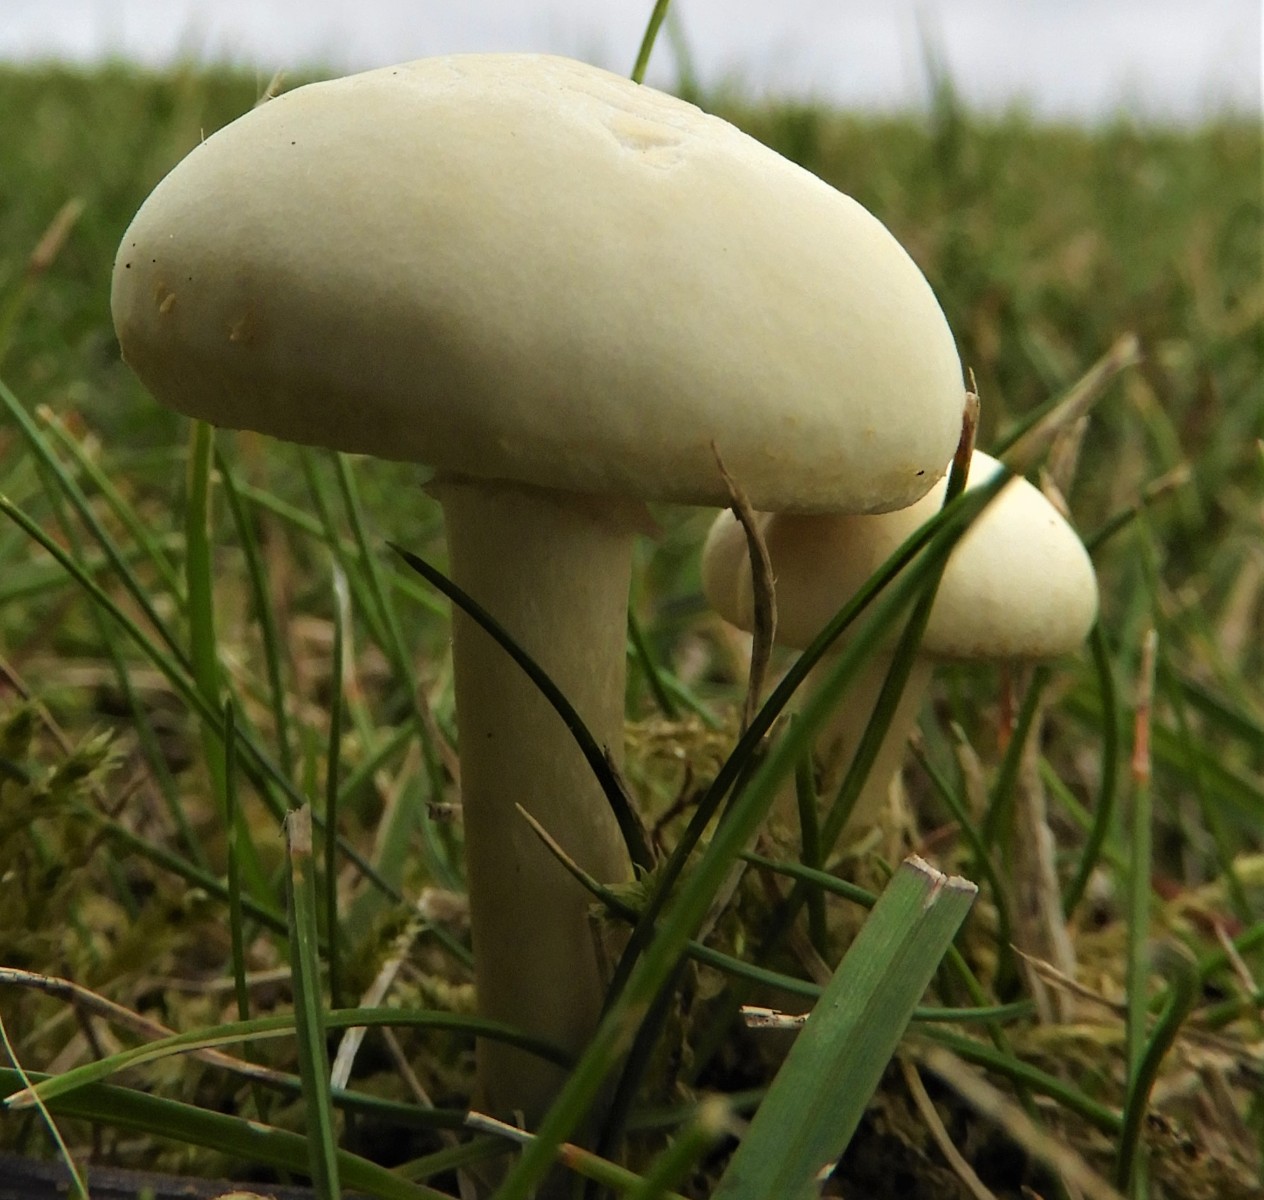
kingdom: Fungi
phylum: Basidiomycota
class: Agaricomycetes
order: Agaricales
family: Strophariaceae
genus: Agrocybe
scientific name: Agrocybe dura
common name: fastkødet agerhat
